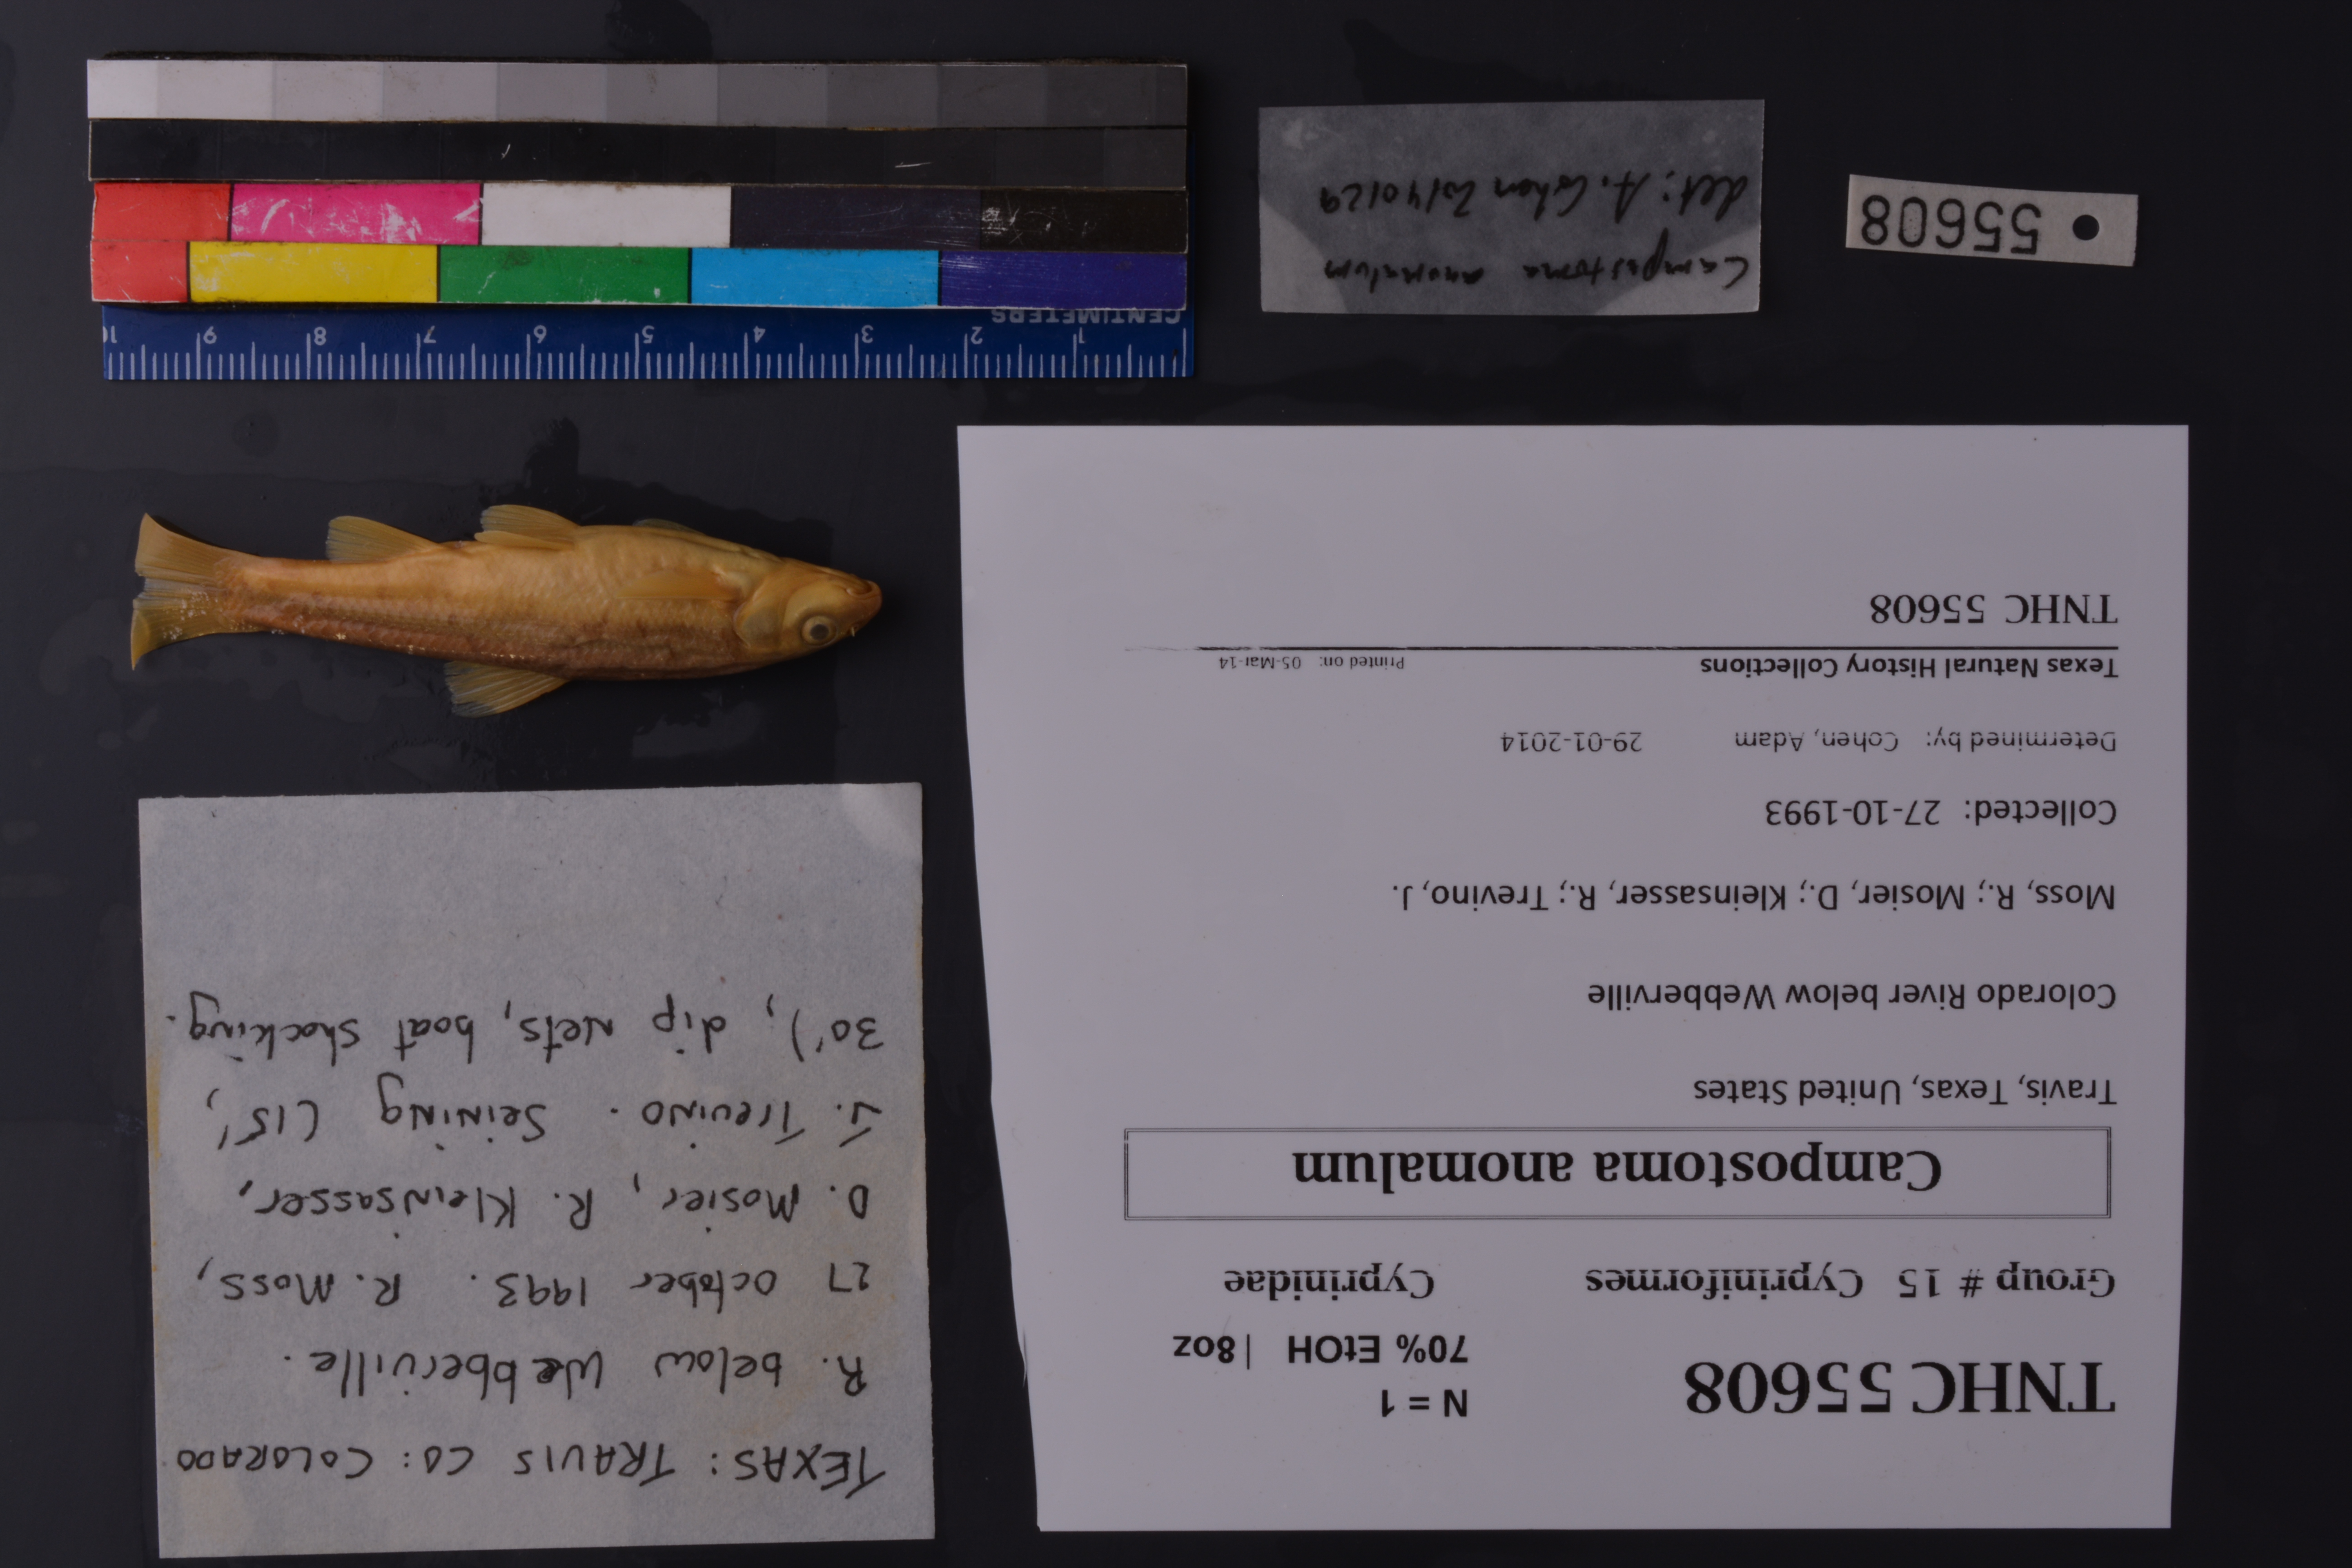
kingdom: Animalia
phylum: Chordata
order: Cypriniformes
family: Cyprinidae
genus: Campostoma
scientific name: Campostoma anomalum
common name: Central stoneroller
